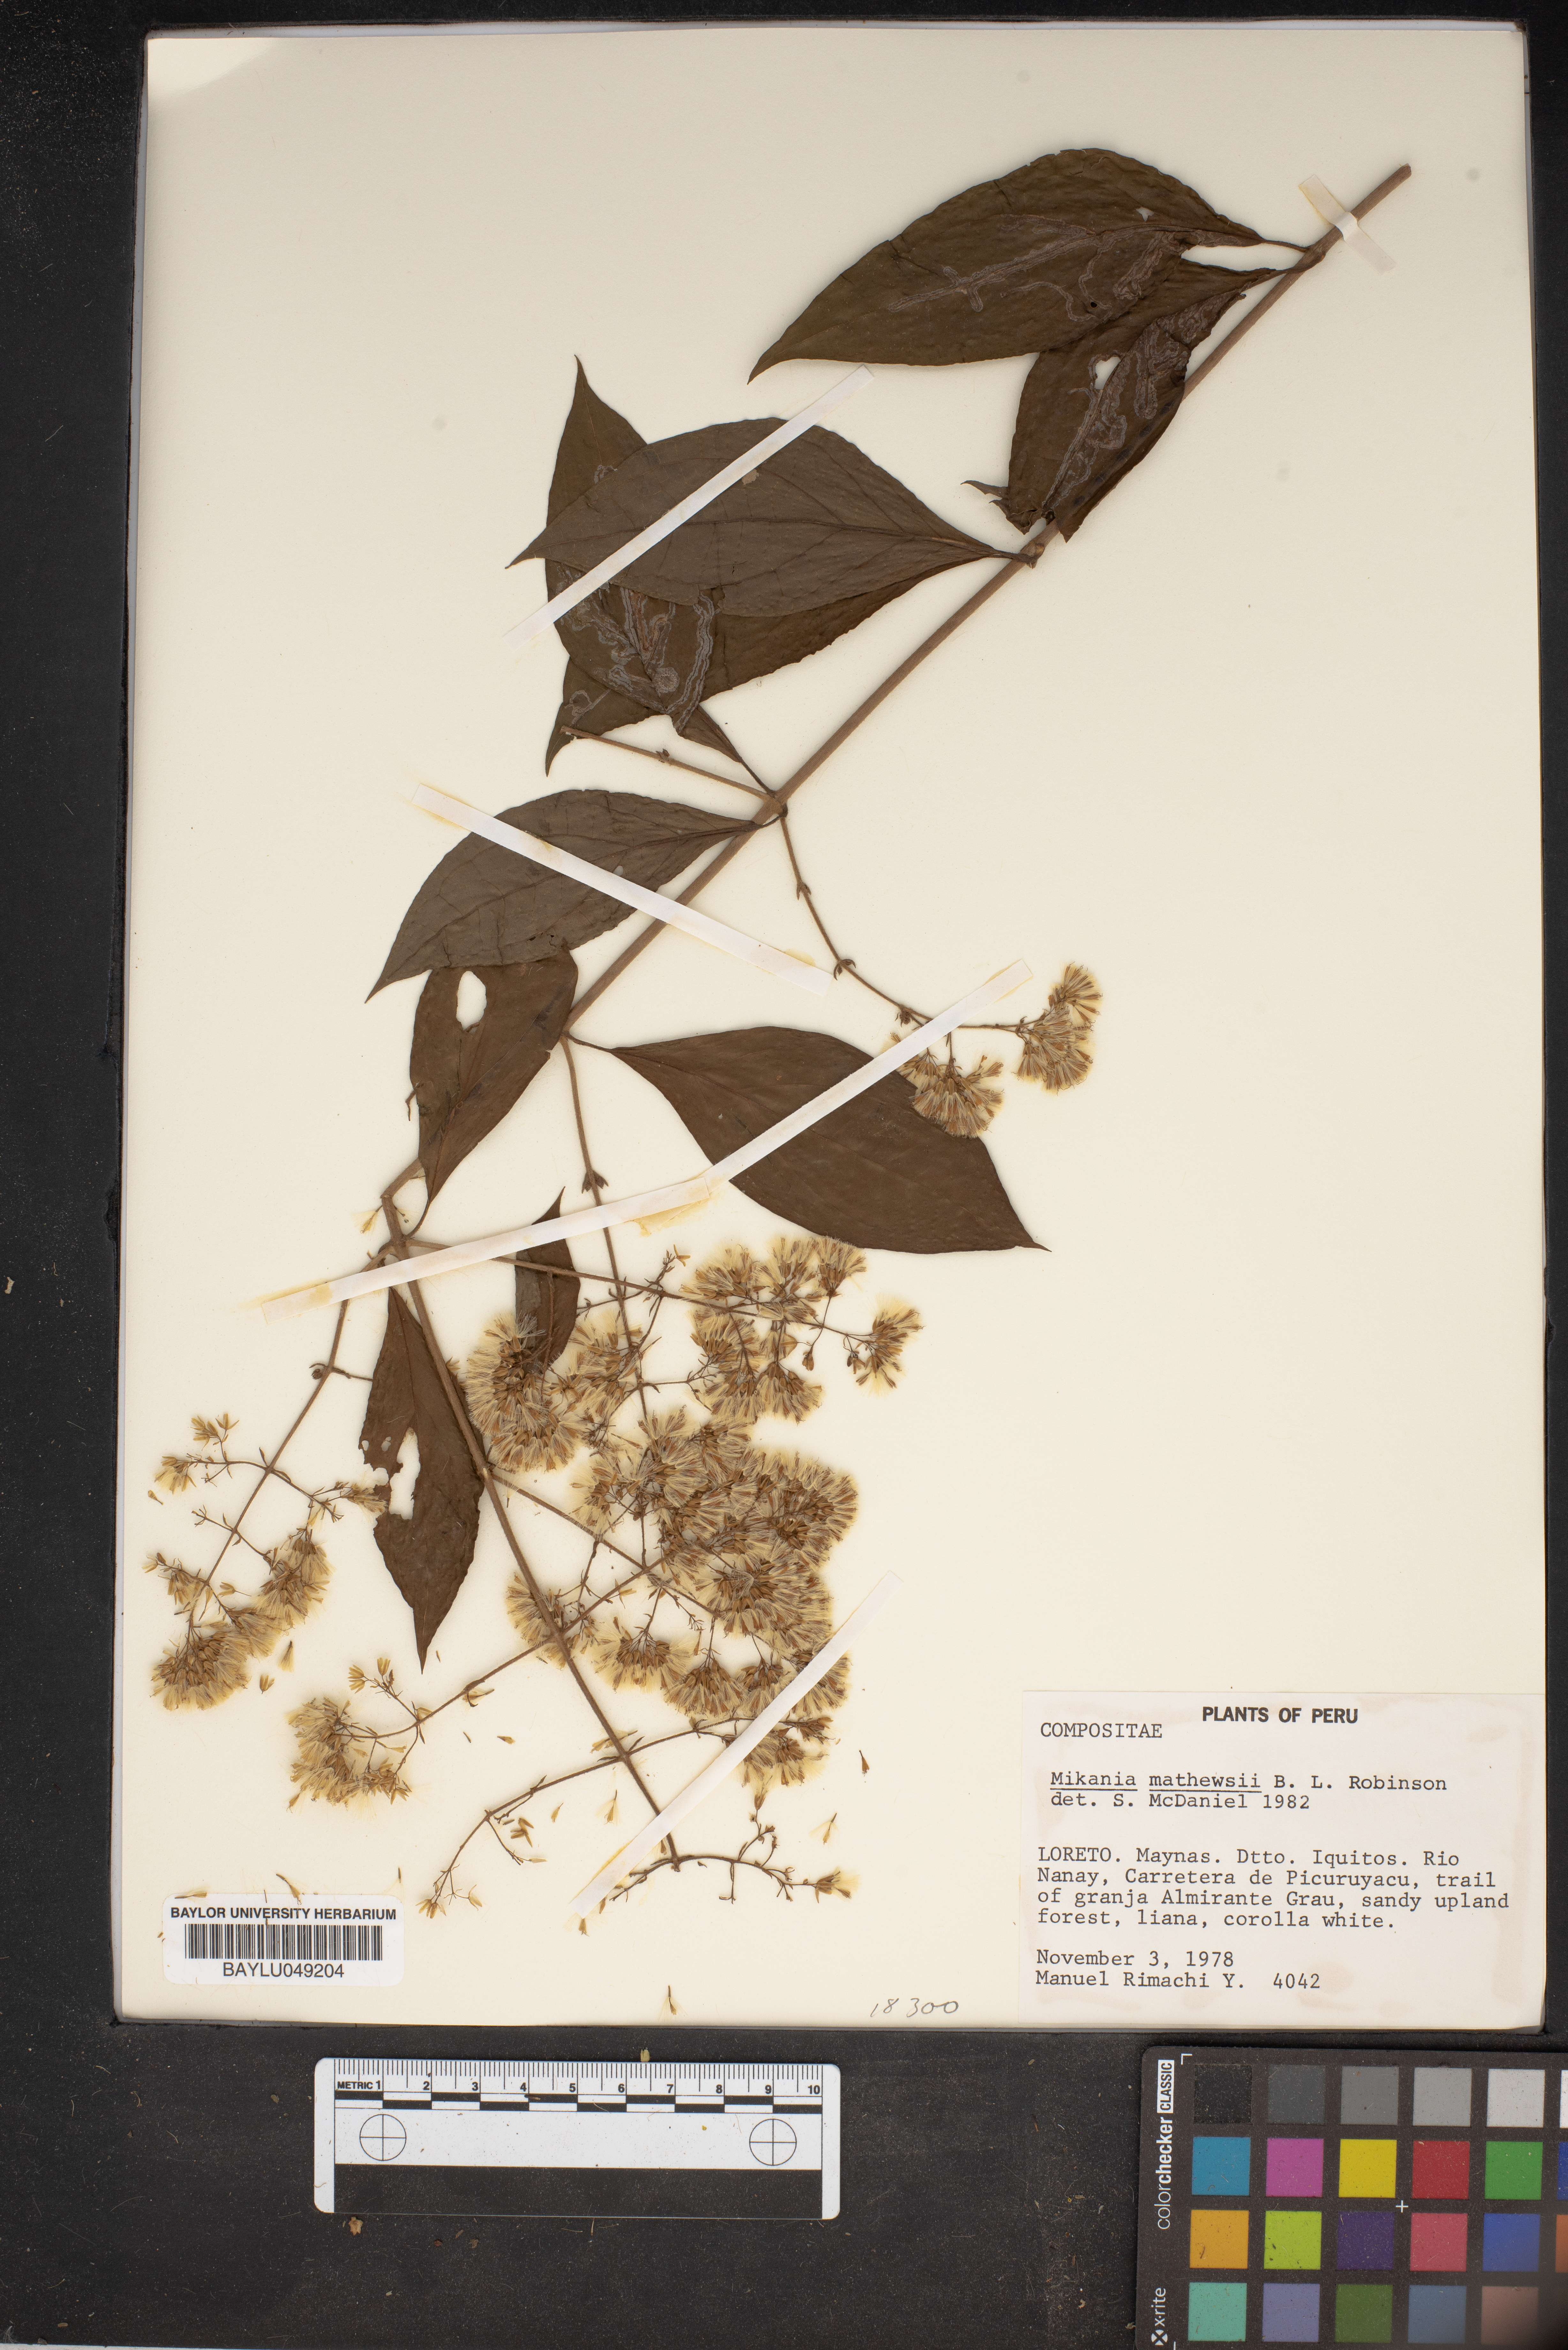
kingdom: Plantae
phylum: Tracheophyta
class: Magnoliopsida
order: Asterales
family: Asteraceae
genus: Mikania
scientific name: Mikania mathewsii
